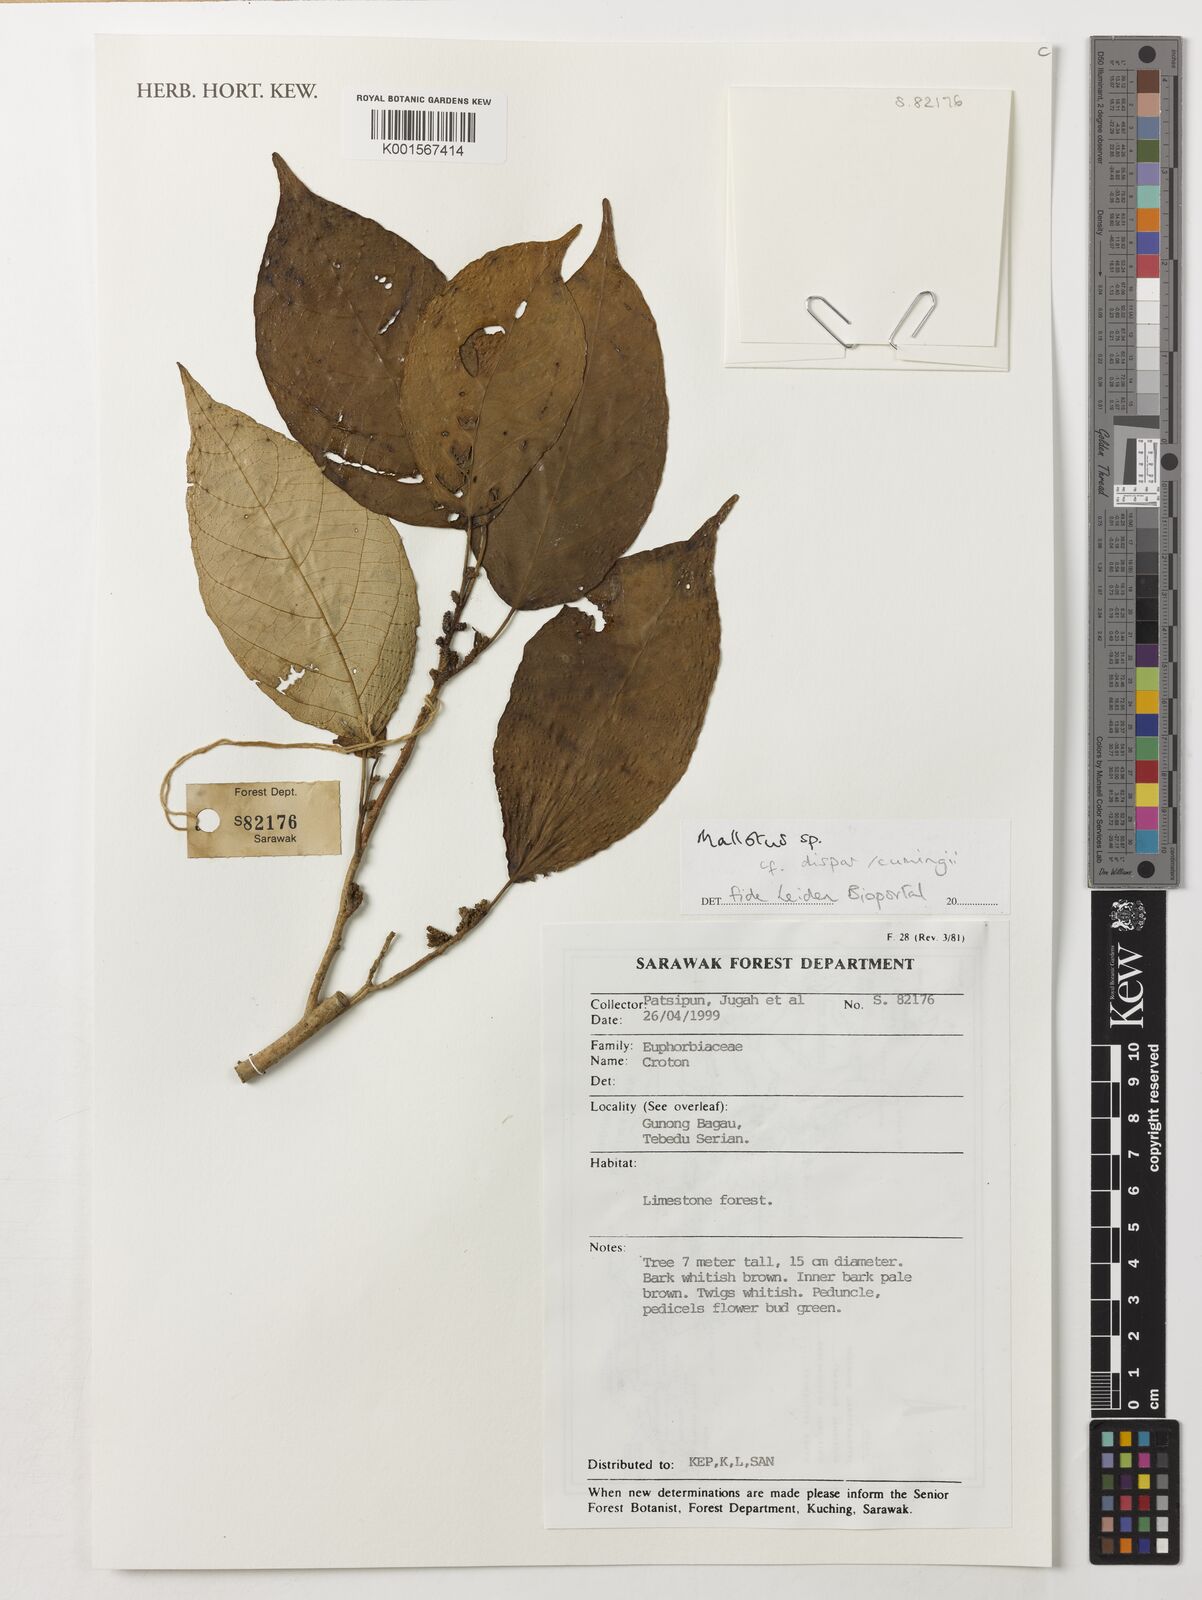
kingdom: Plantae
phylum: Tracheophyta
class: Magnoliopsida
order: Malpighiales
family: Euphorbiaceae
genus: Mallotus
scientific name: Mallotus
